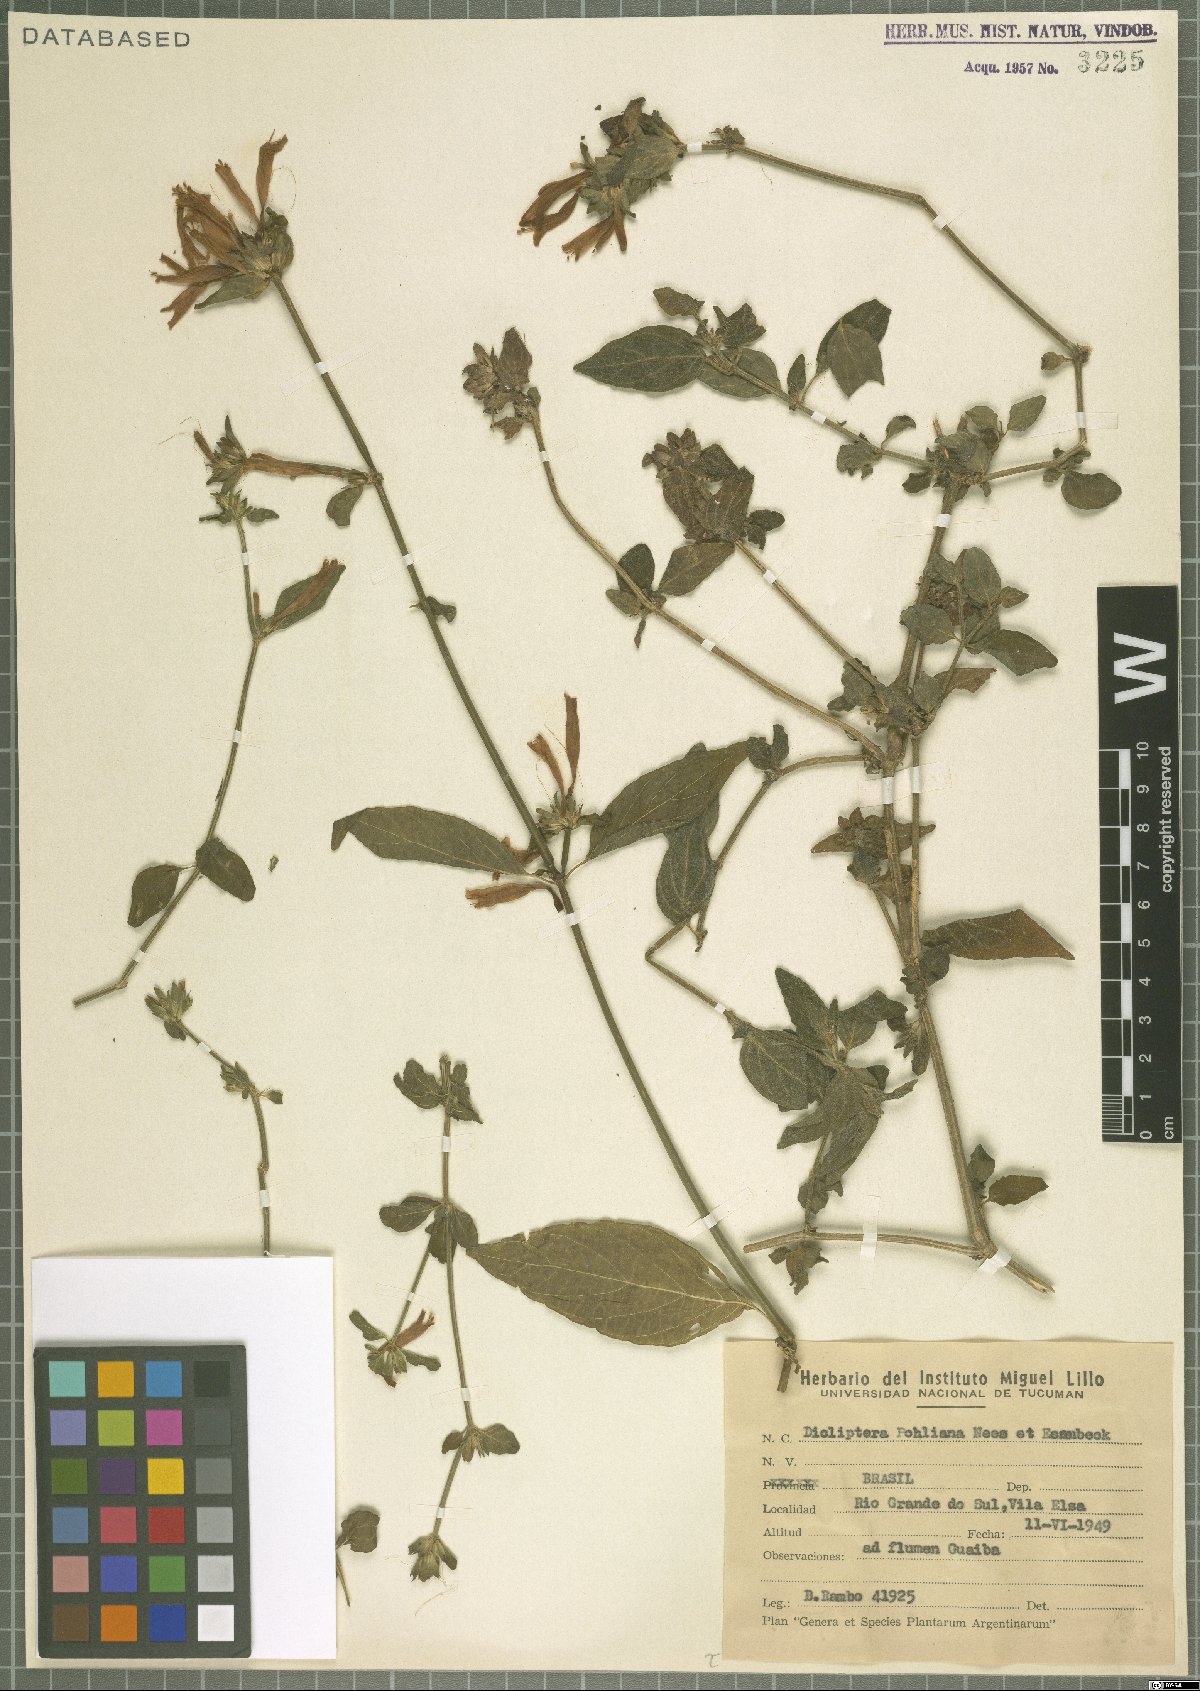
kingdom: Plantae
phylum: Tracheophyta
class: Magnoliopsida
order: Lamiales
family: Acanthaceae
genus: Dicliptera
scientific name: Dicliptera squarrosa
